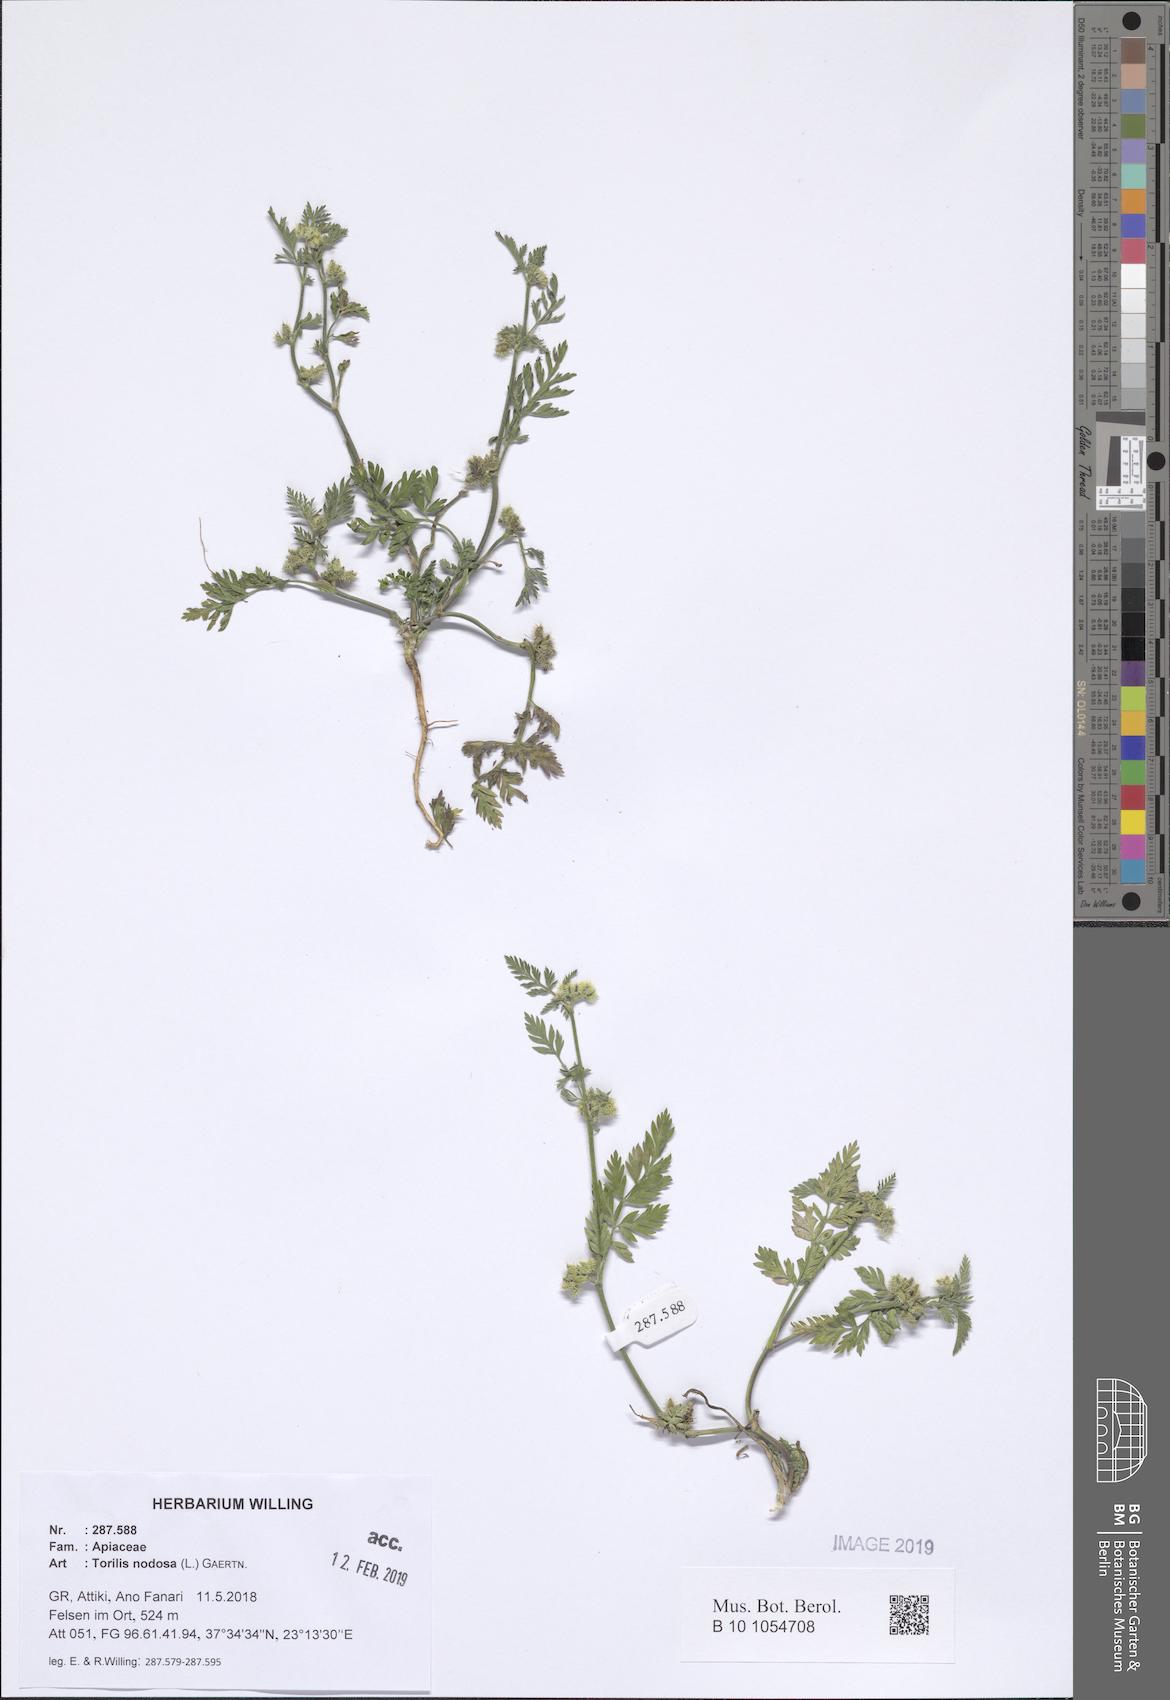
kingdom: Plantae
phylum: Tracheophyta
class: Magnoliopsida
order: Apiales
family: Apiaceae
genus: Torilis
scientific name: Torilis nodosa
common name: Knotted hedge-parsley
